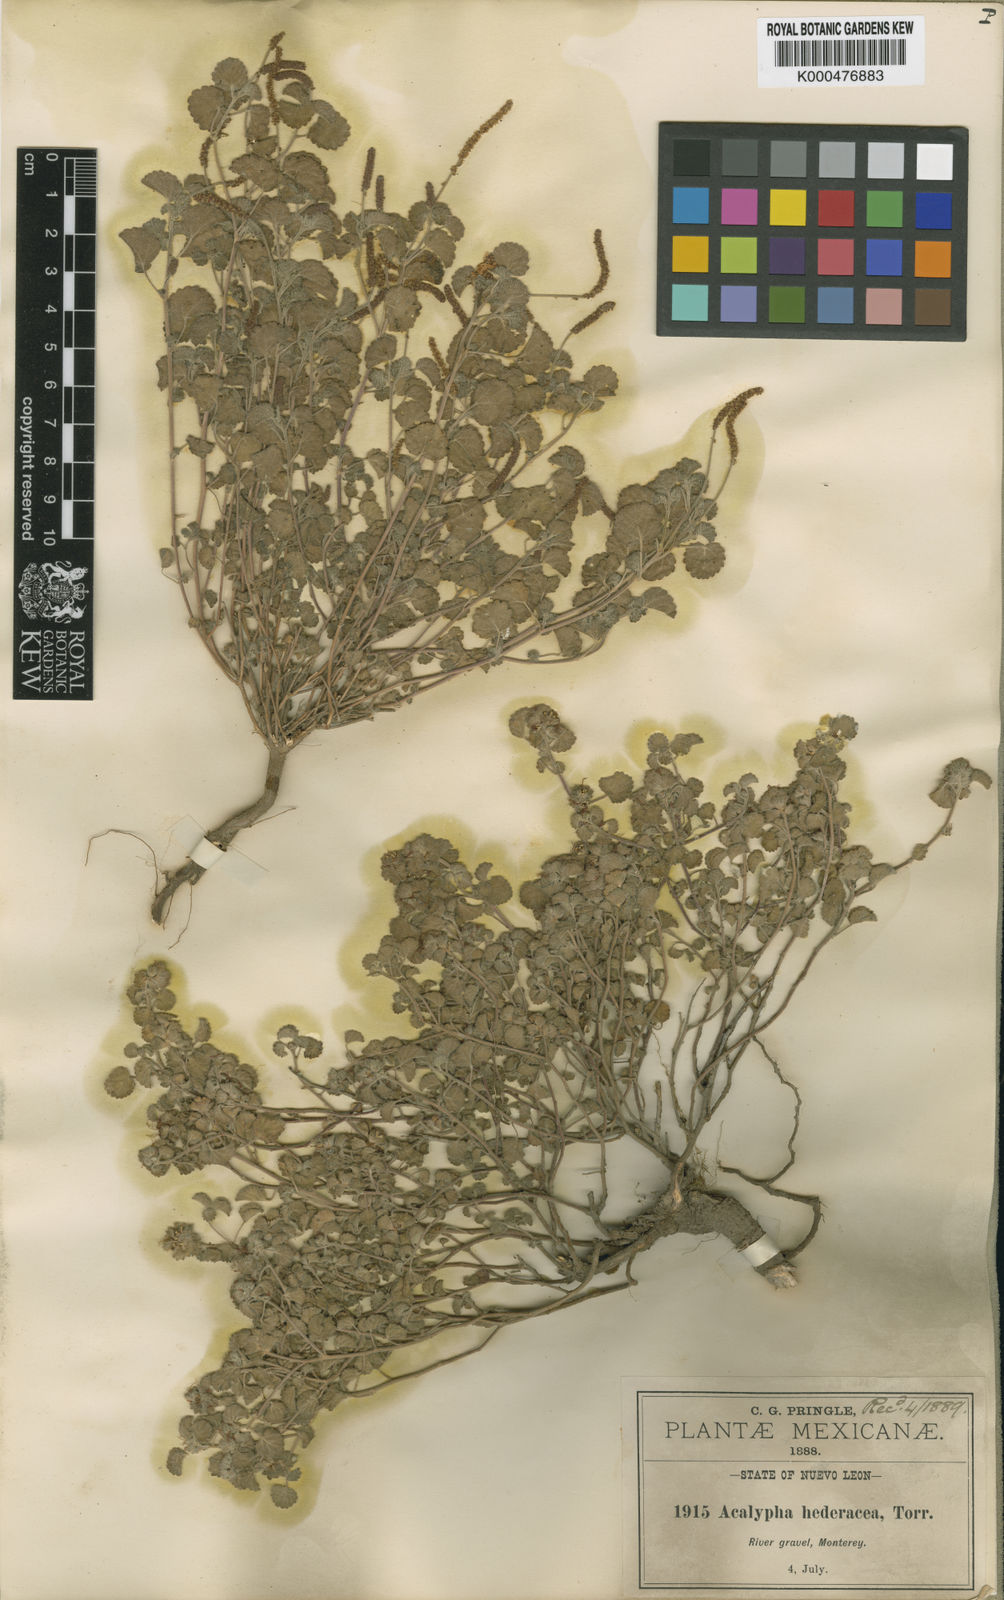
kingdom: Plantae
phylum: Tracheophyta
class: Magnoliopsida
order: Malpighiales
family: Euphorbiaceae
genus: Acalypha
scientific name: Acalypha anemioides
